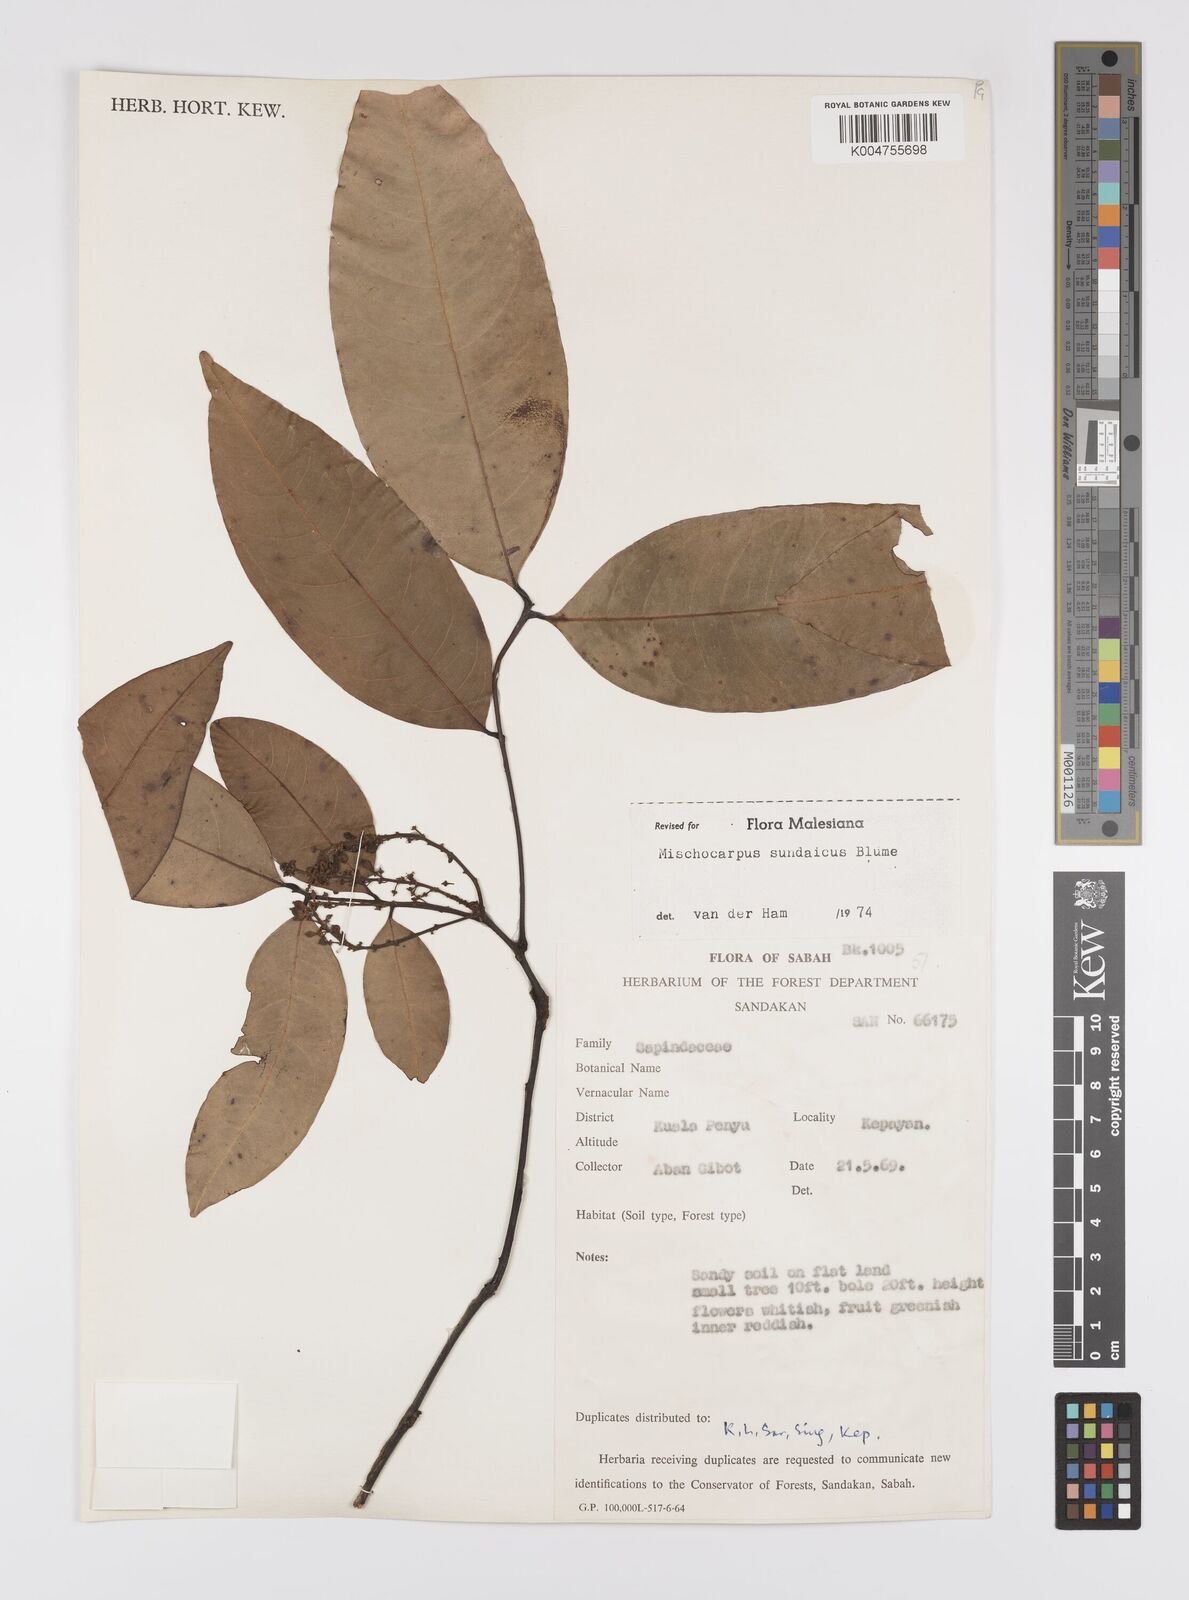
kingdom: Plantae
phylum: Tracheophyta
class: Magnoliopsida
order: Sapindales
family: Sapindaceae
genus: Mischocarpus
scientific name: Mischocarpus sundaicus
